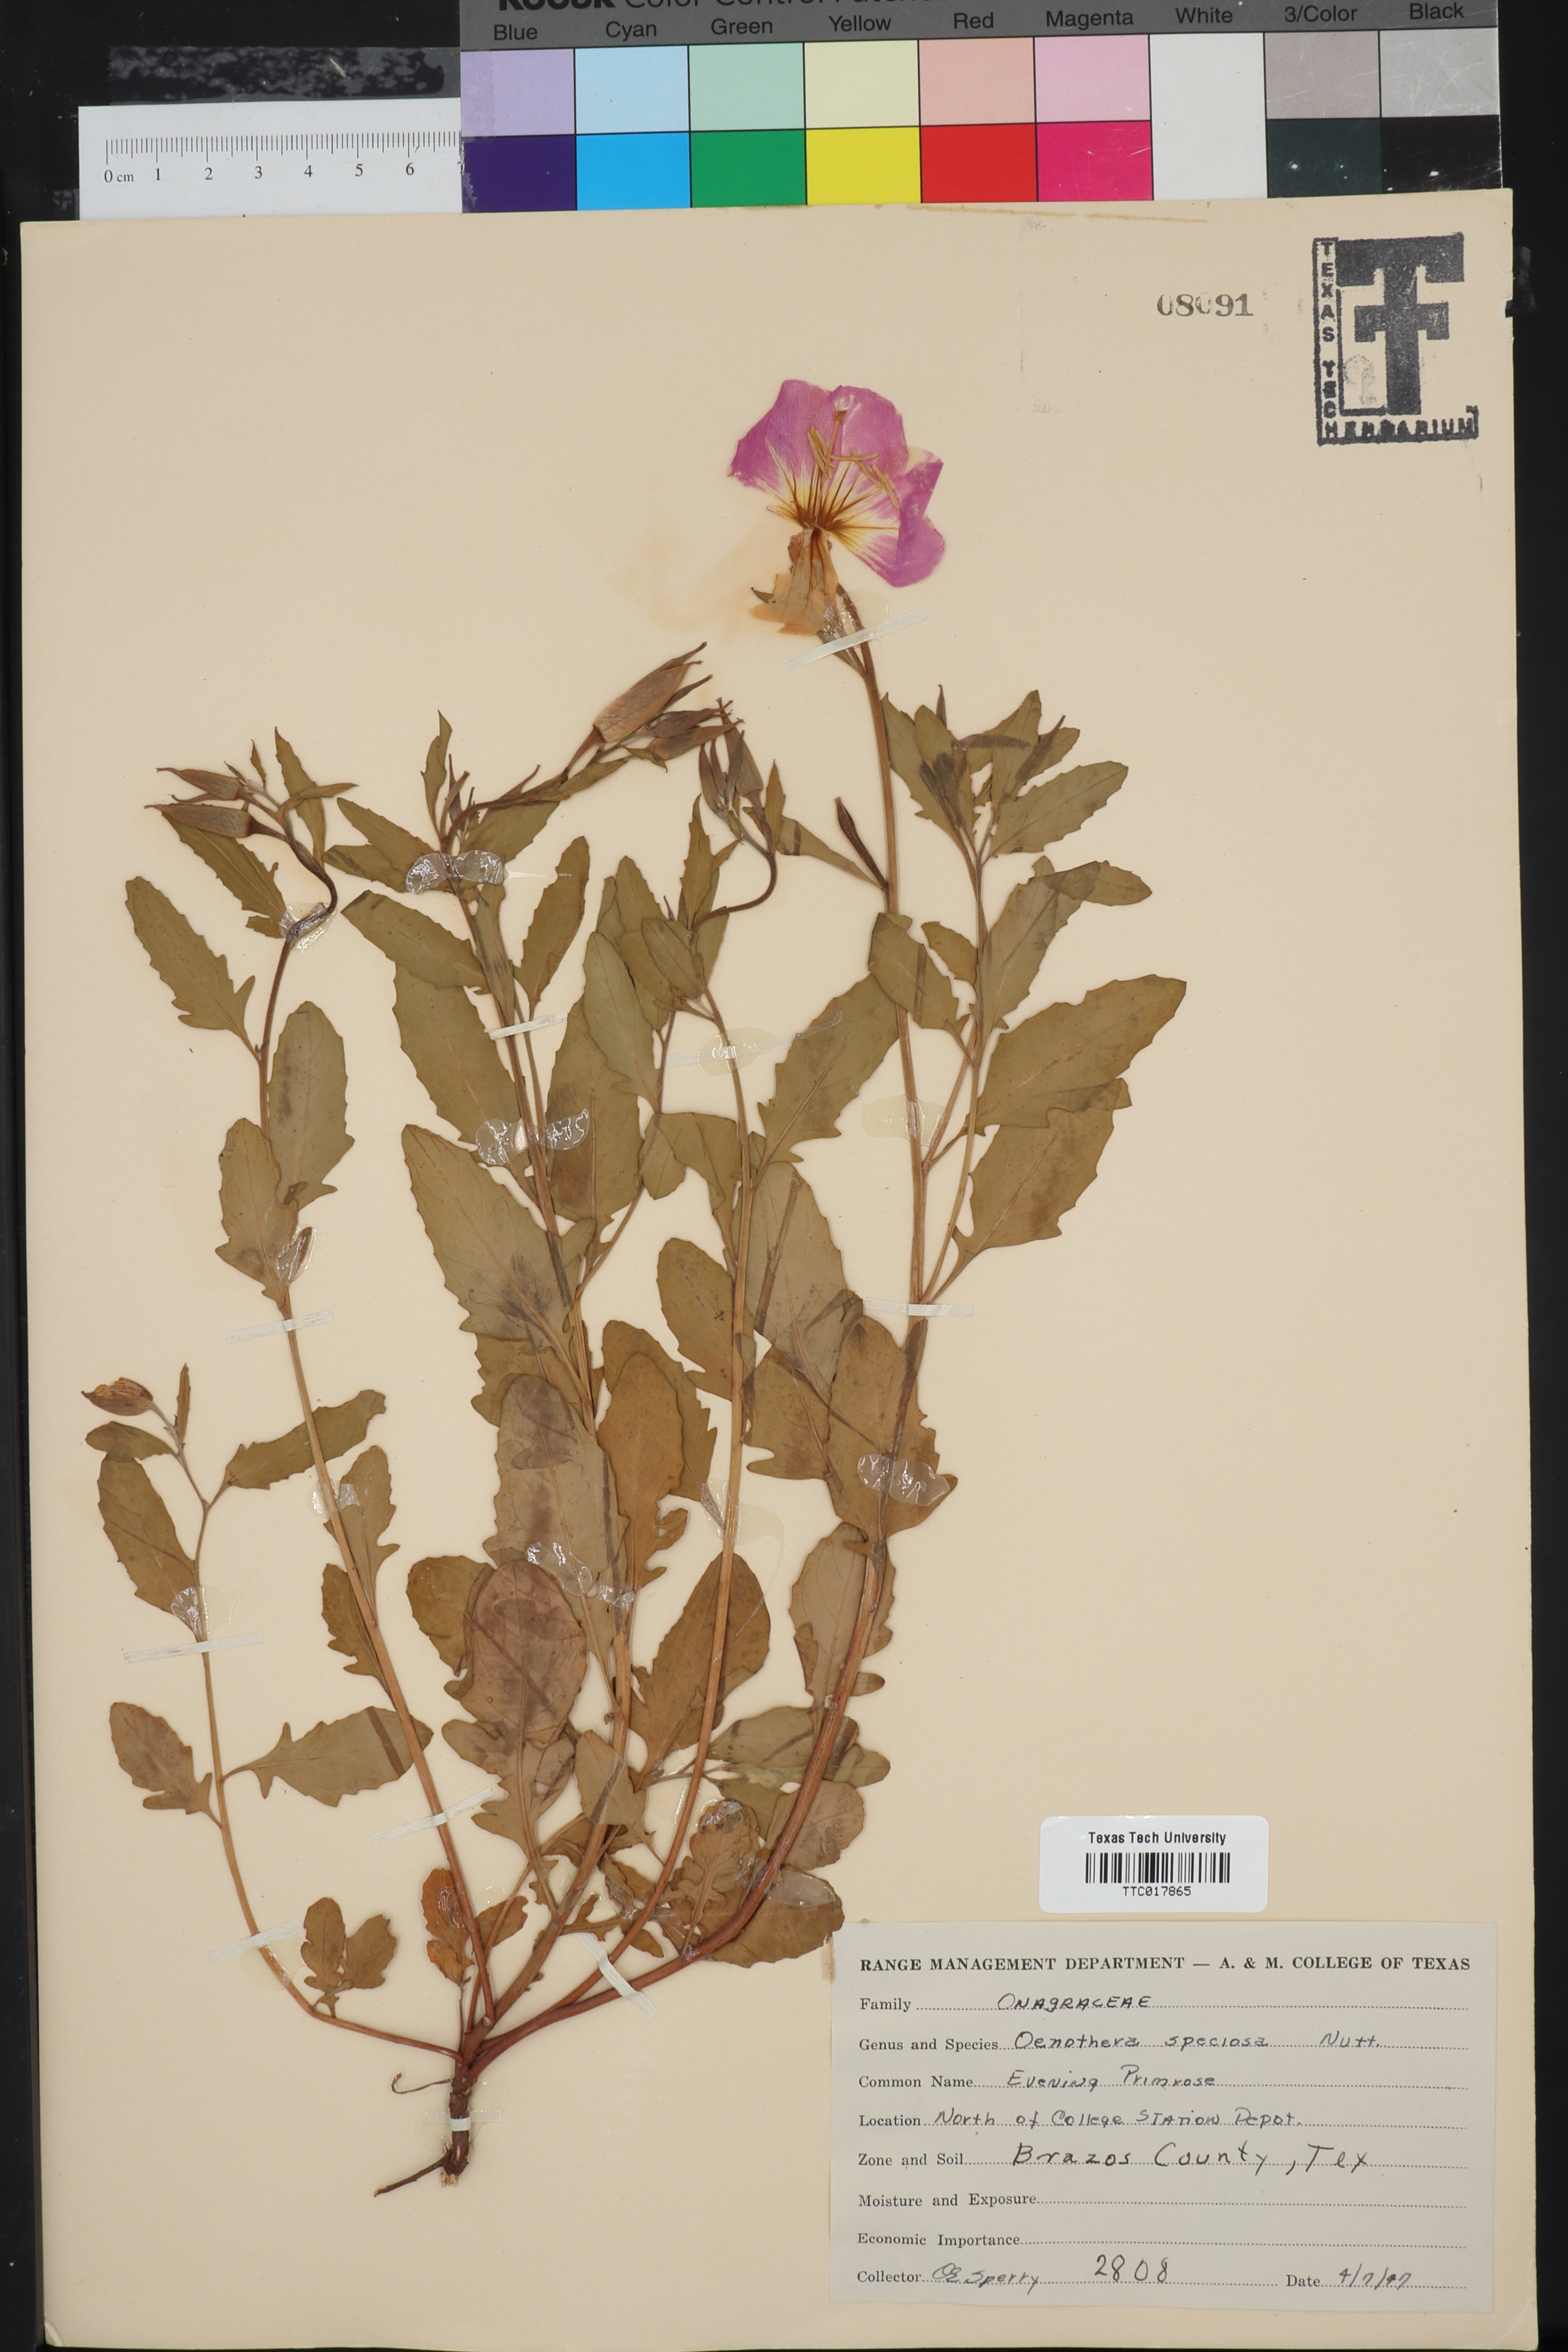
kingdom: Plantae
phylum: Tracheophyta
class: Magnoliopsida
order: Myrtales
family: Onagraceae
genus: Oenothera
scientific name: Oenothera speciosa
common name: White evening-primrose
